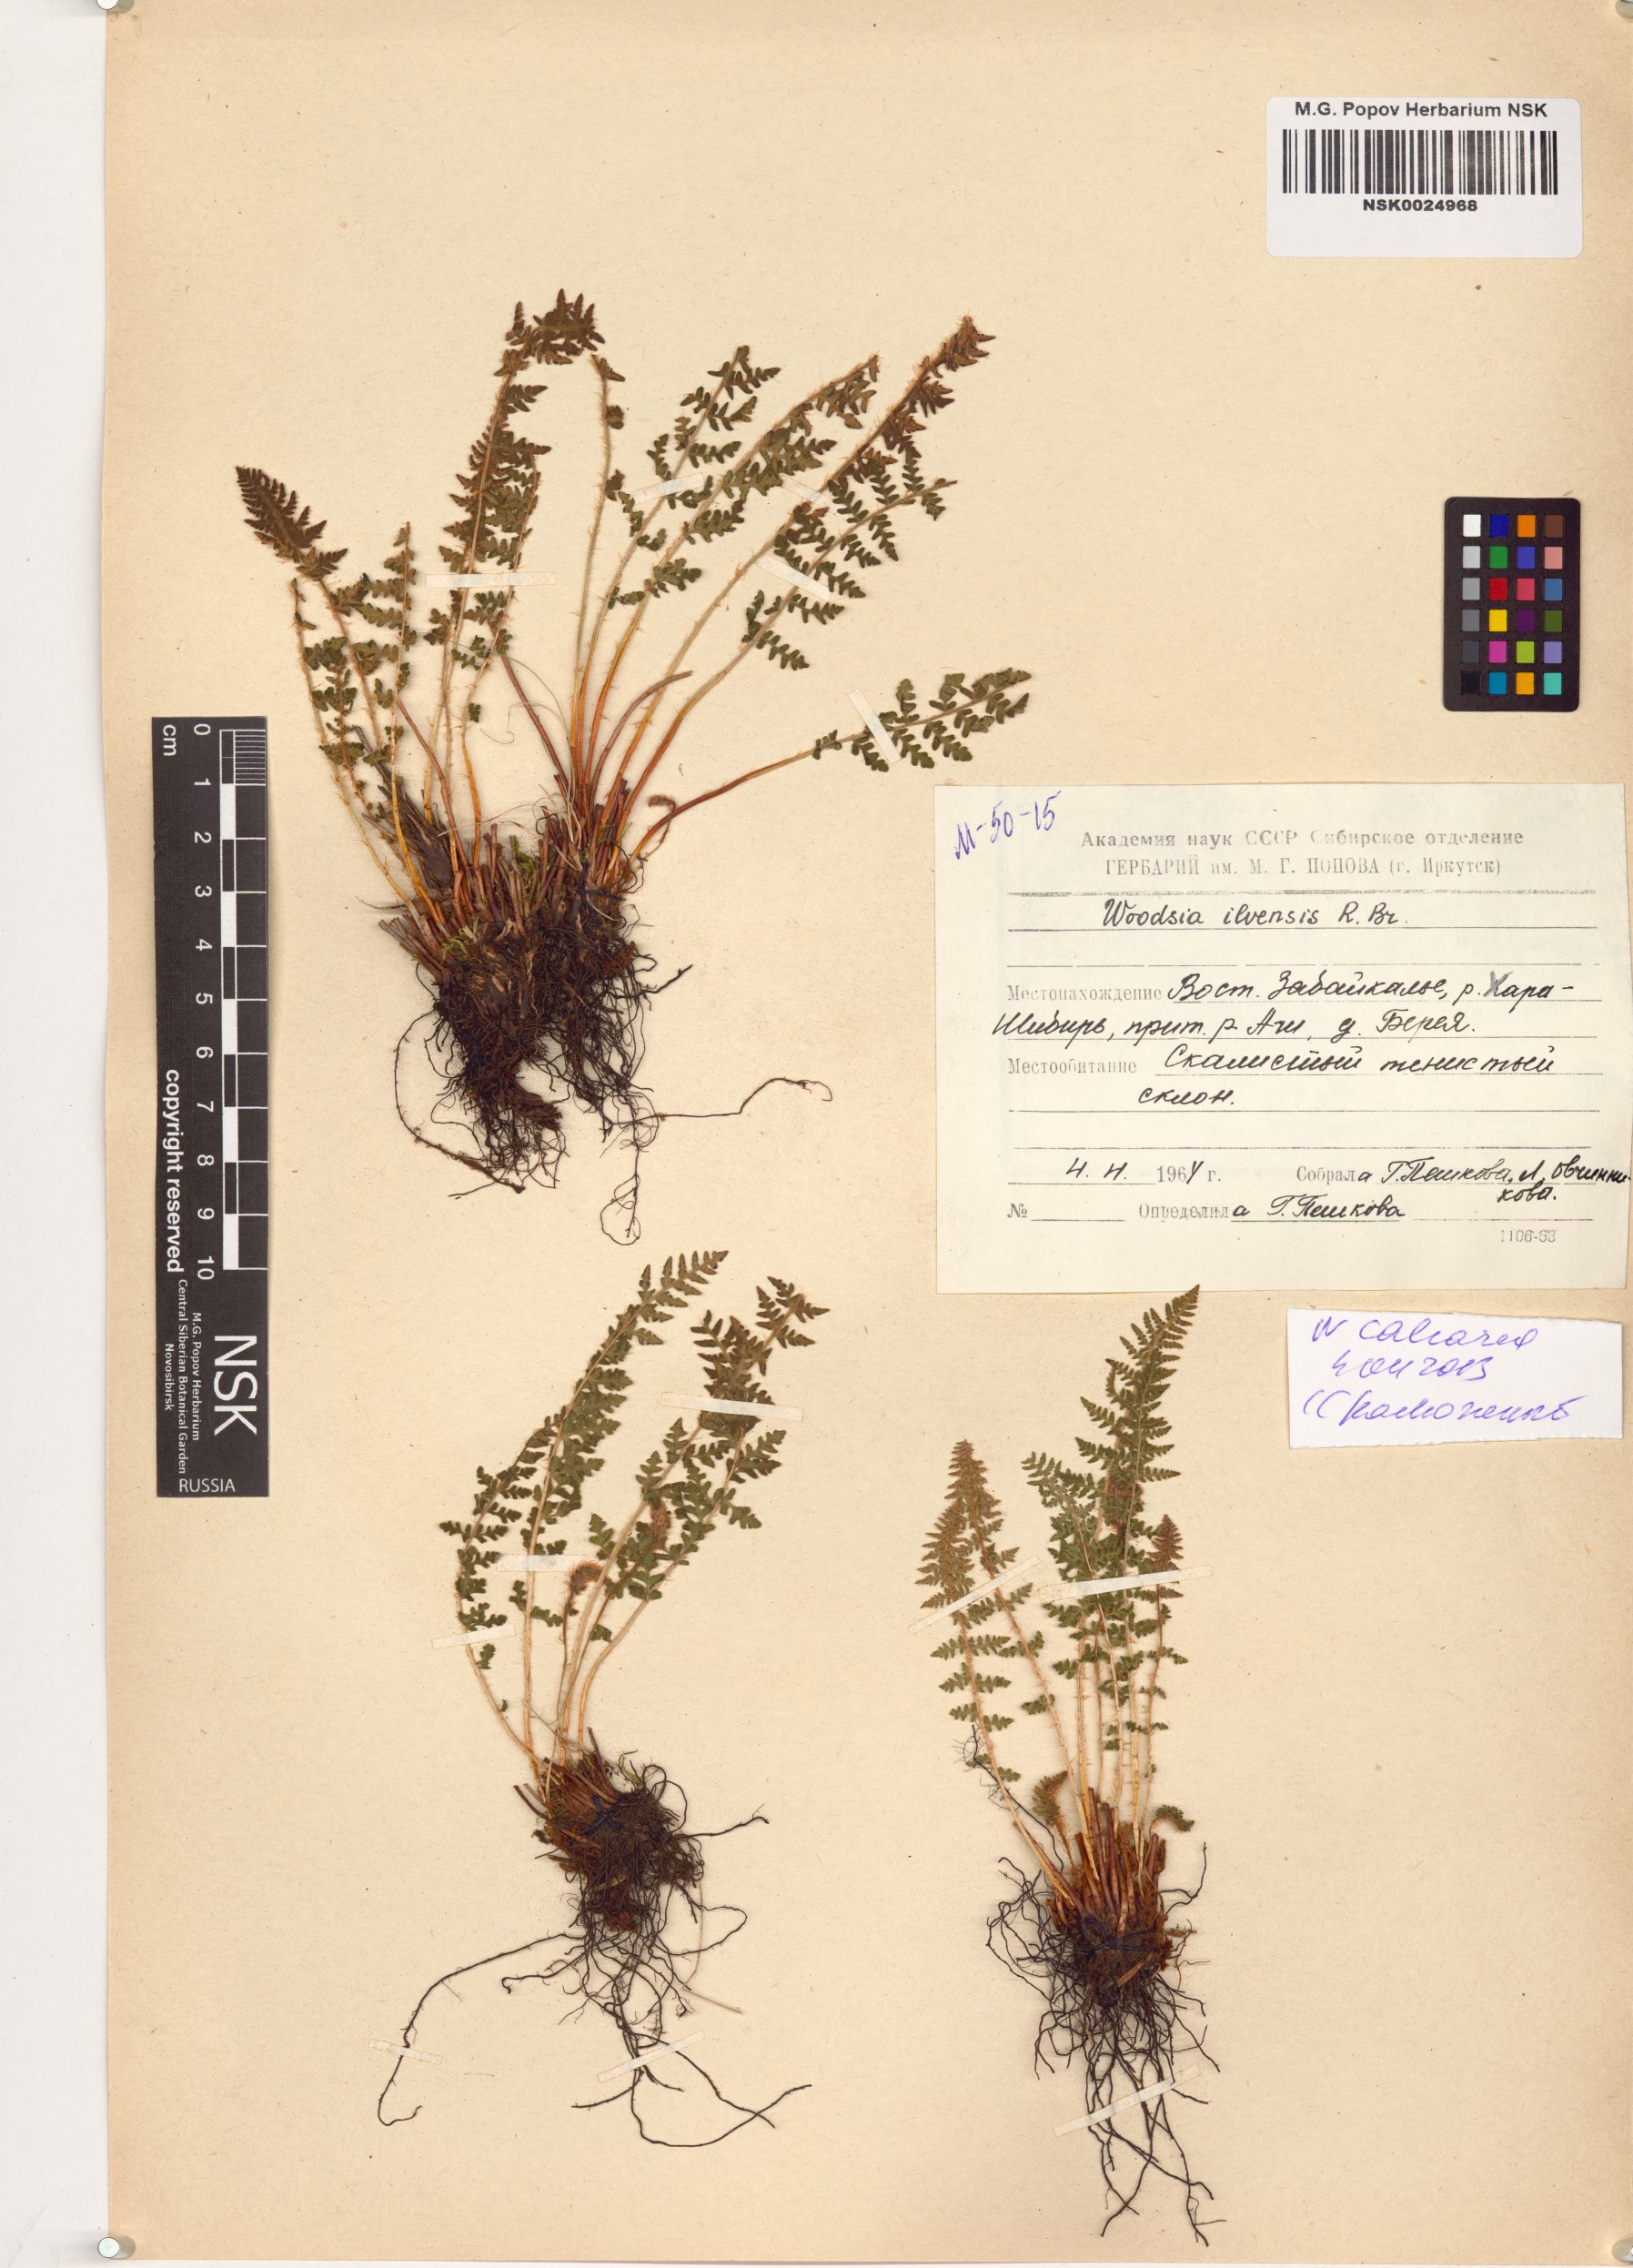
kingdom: Plantae
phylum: Tracheophyta
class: Polypodiopsida
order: Polypodiales
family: Woodsiaceae
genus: Woodsia
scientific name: Woodsia calcarea
